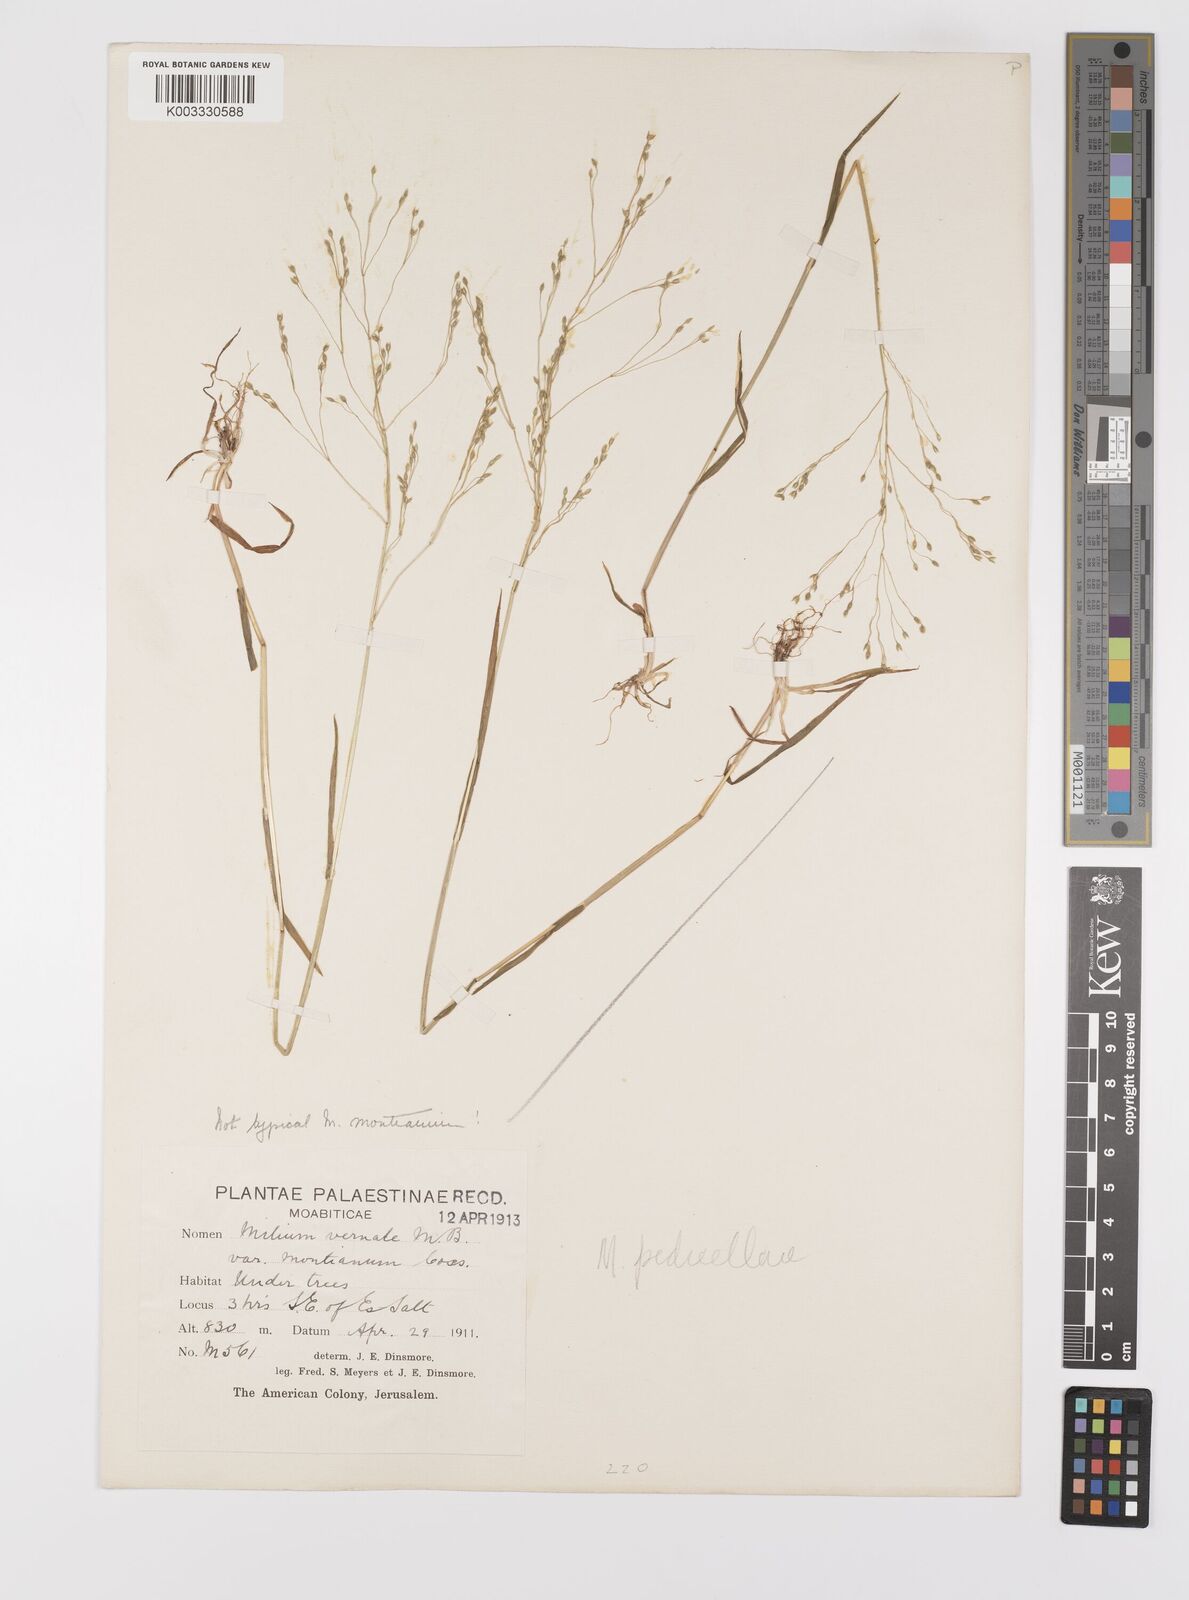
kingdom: Plantae
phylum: Tracheophyta
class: Liliopsida
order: Poales
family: Poaceae
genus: Milium
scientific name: Milium pedicellare
